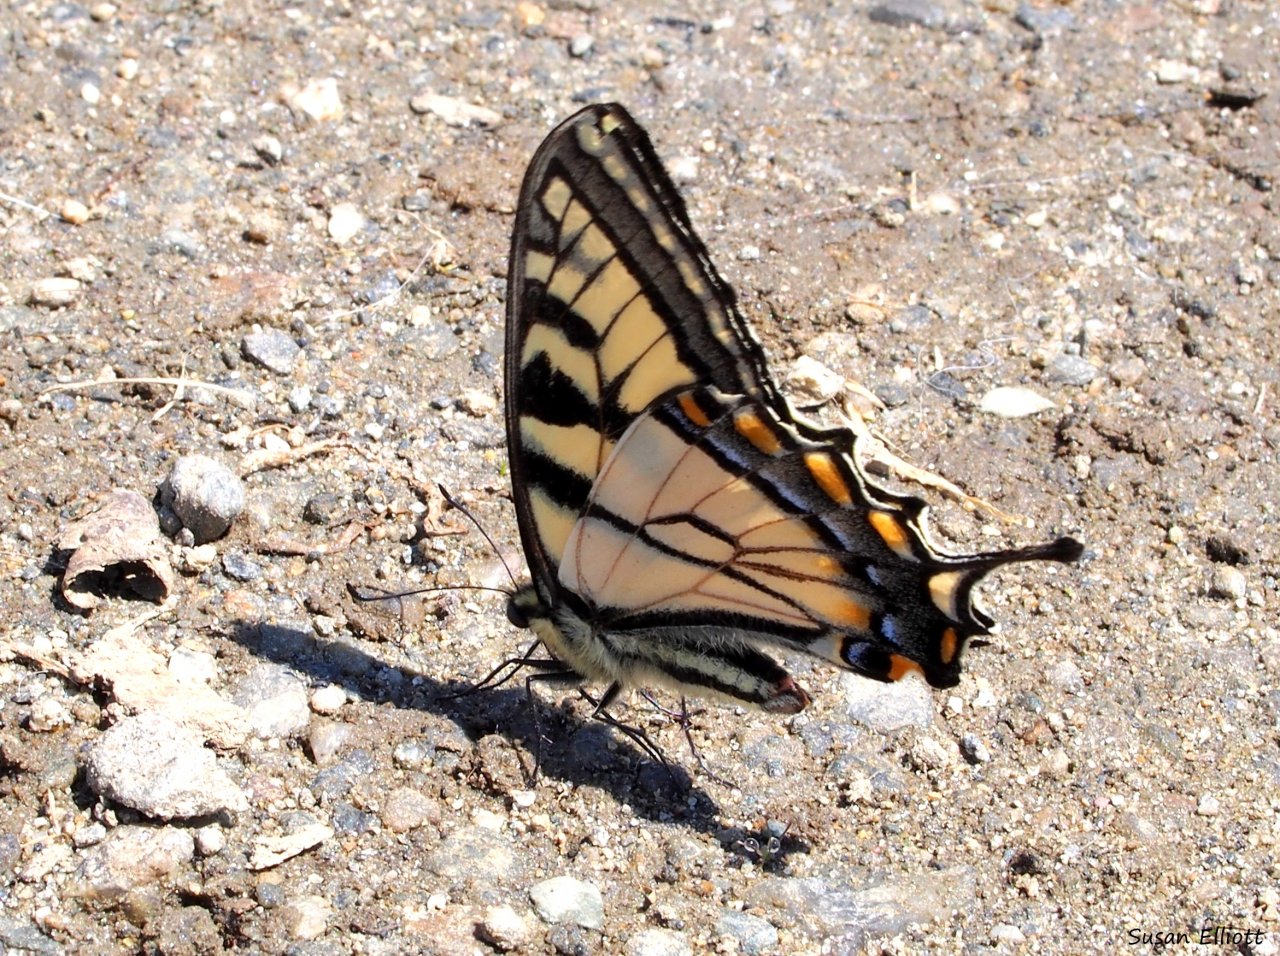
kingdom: Animalia
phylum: Arthropoda
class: Insecta
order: Lepidoptera
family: Papilionidae
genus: Pterourus
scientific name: Pterourus canadensis
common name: Canadian Tiger Swallowtail
